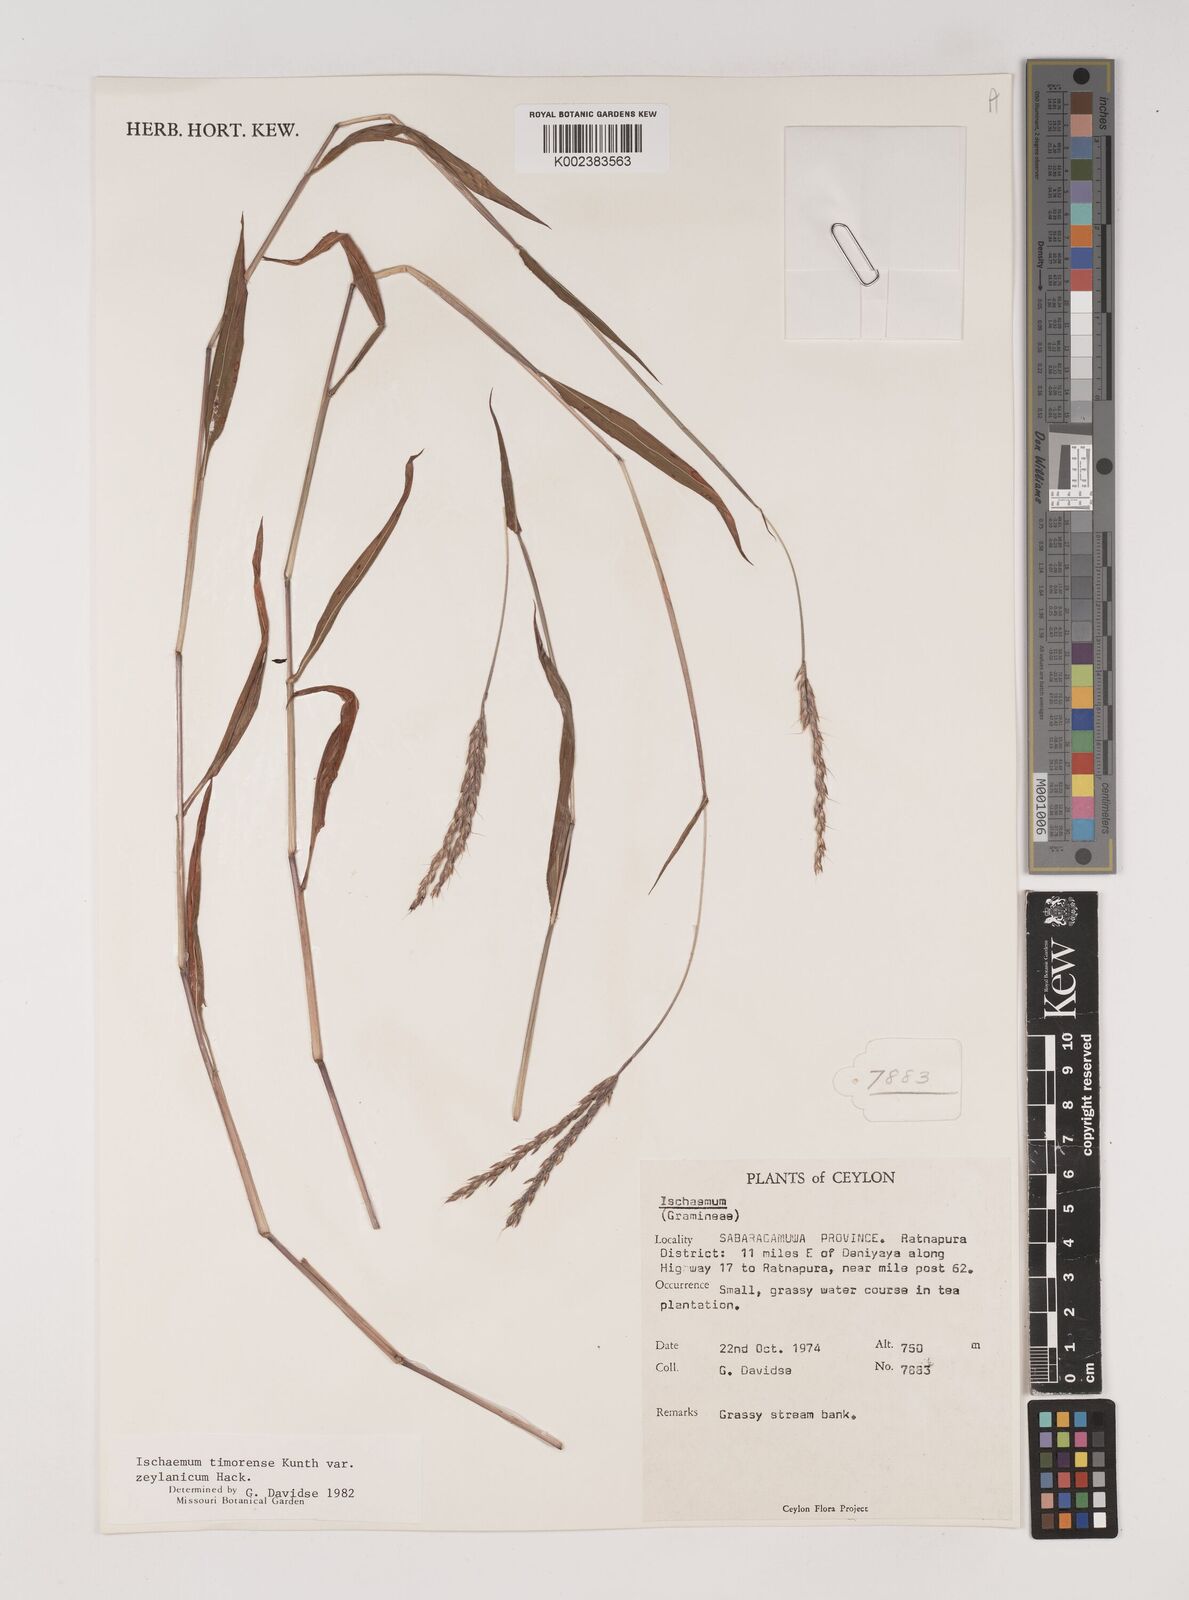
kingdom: Plantae
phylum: Tracheophyta
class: Liliopsida
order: Poales
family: Poaceae
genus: Ischaemum
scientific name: Ischaemum timorense
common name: Stalkleaf murainagrass
